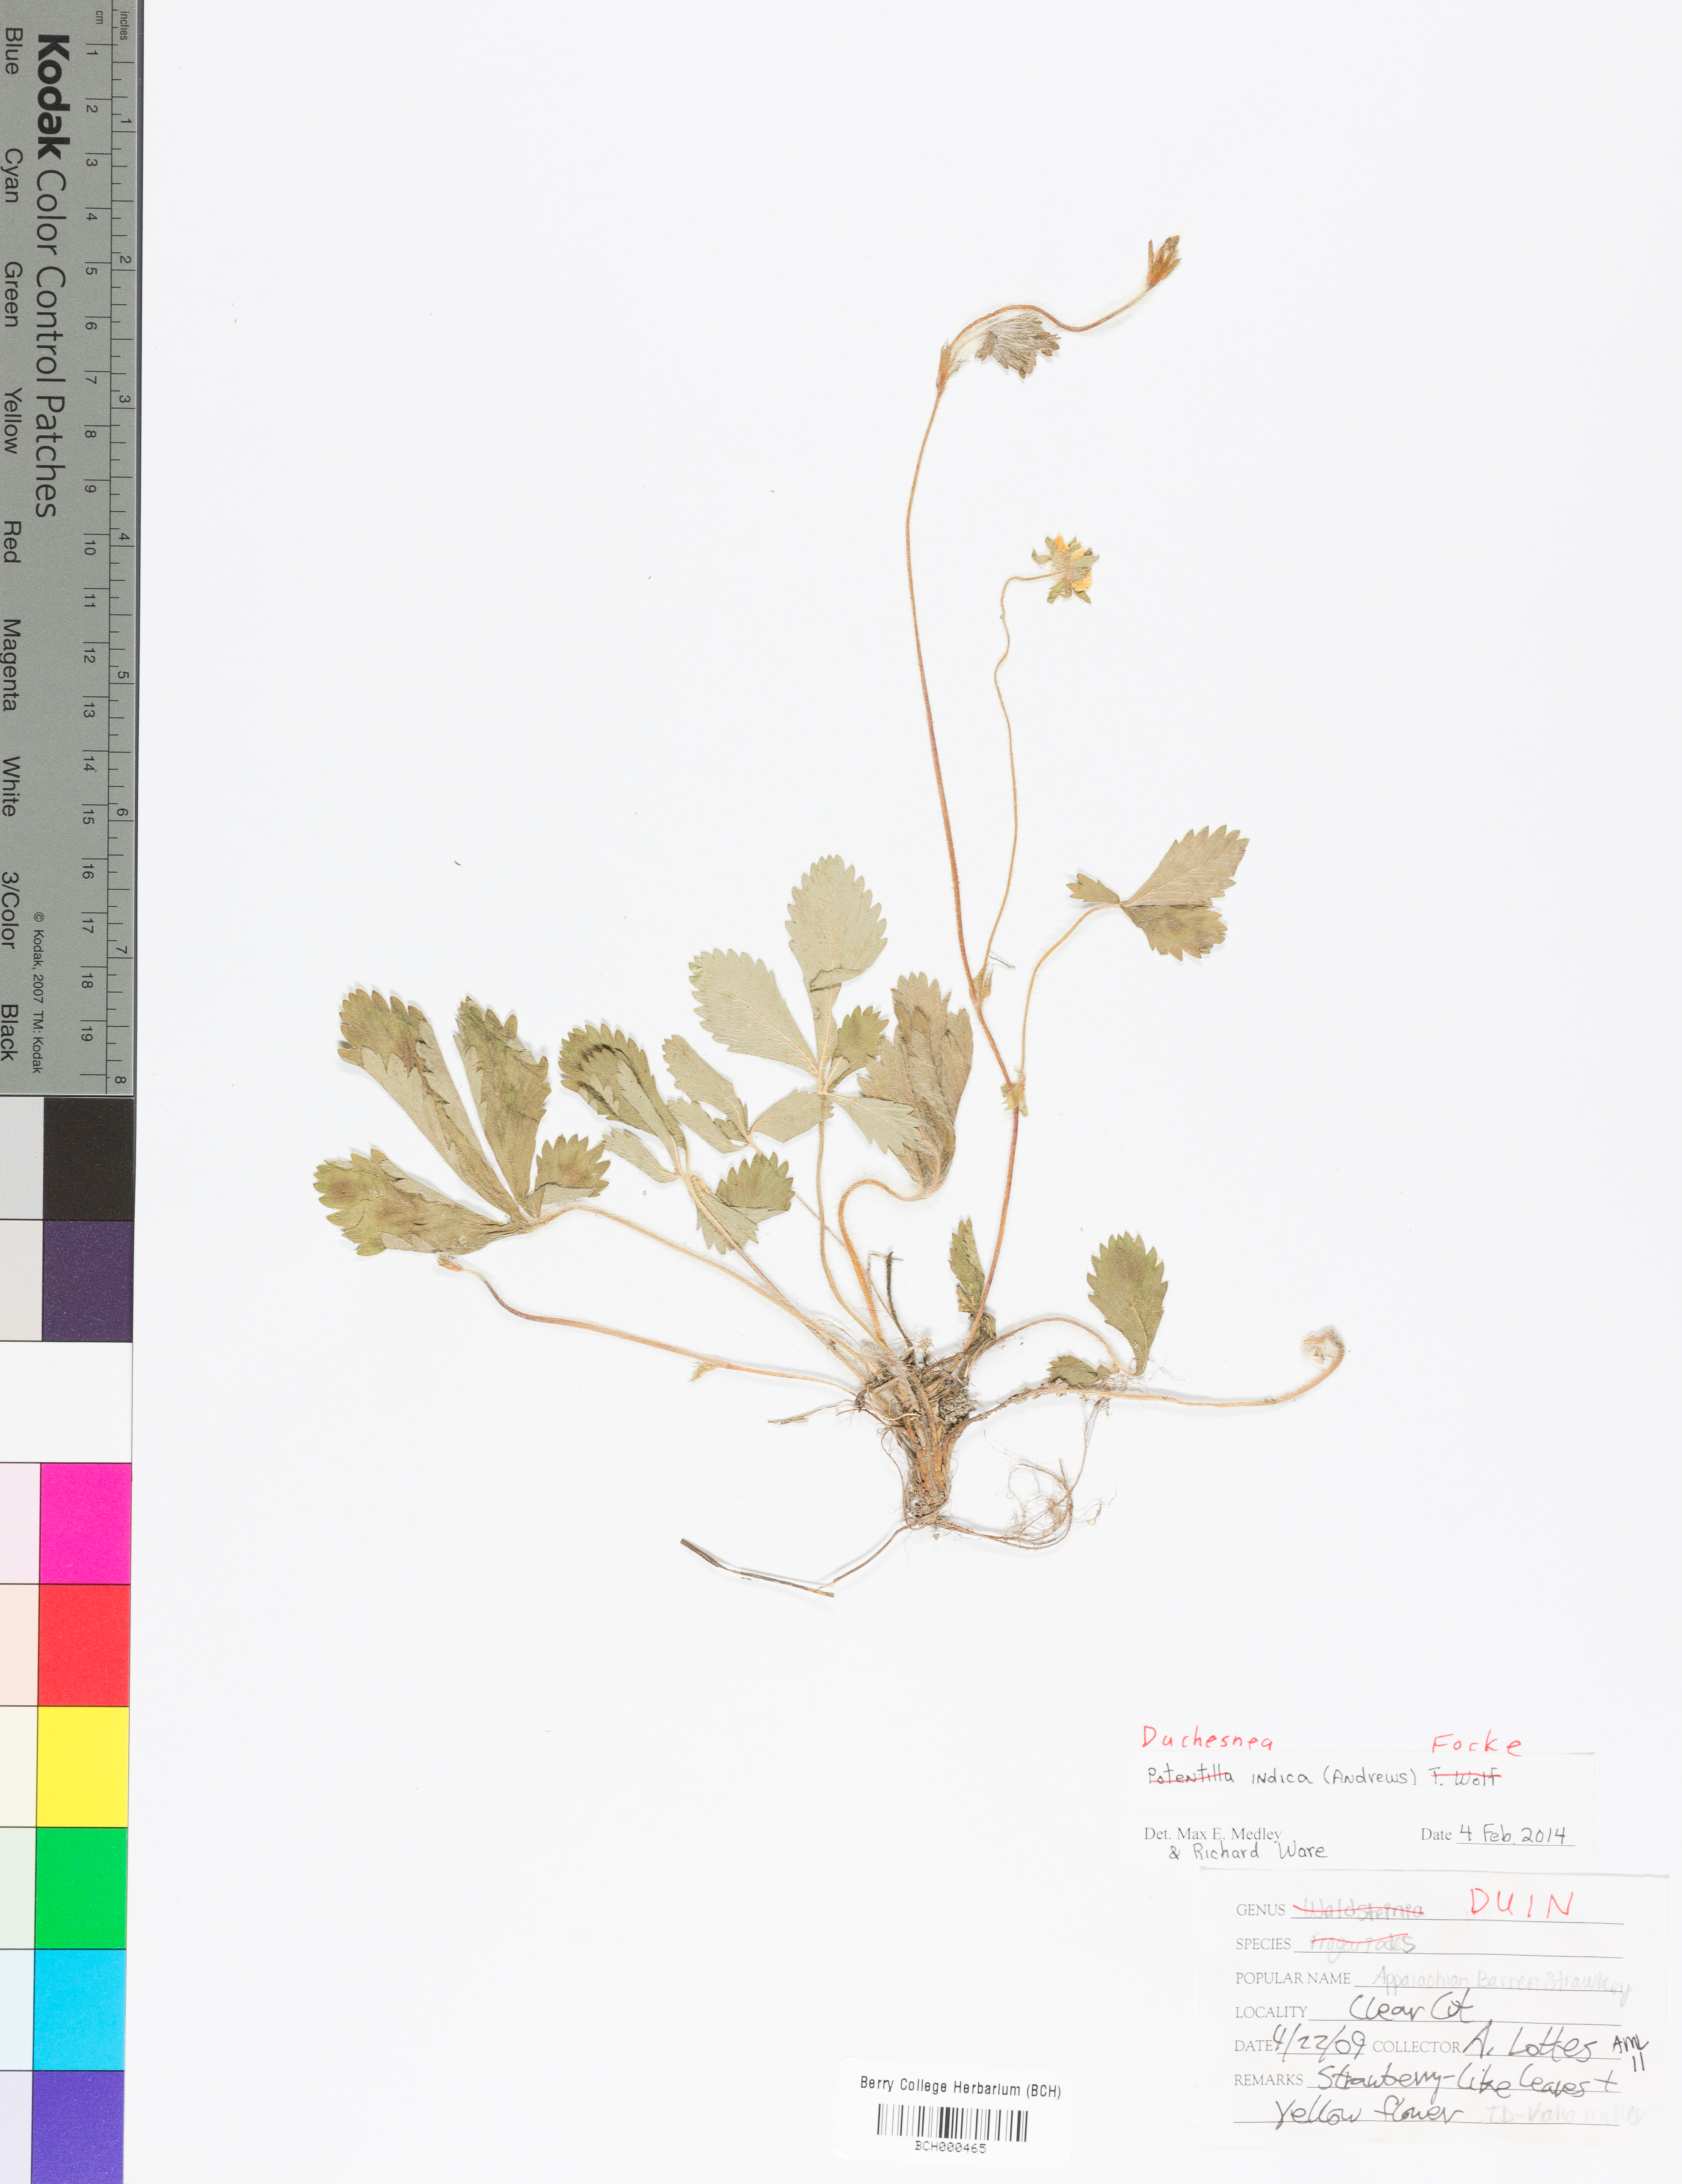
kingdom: Plantae
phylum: Tracheophyta
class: Magnoliopsida
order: Rosales
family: Rosaceae
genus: Potentilla
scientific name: Potentilla indica
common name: Yellow-flowered strawberry
